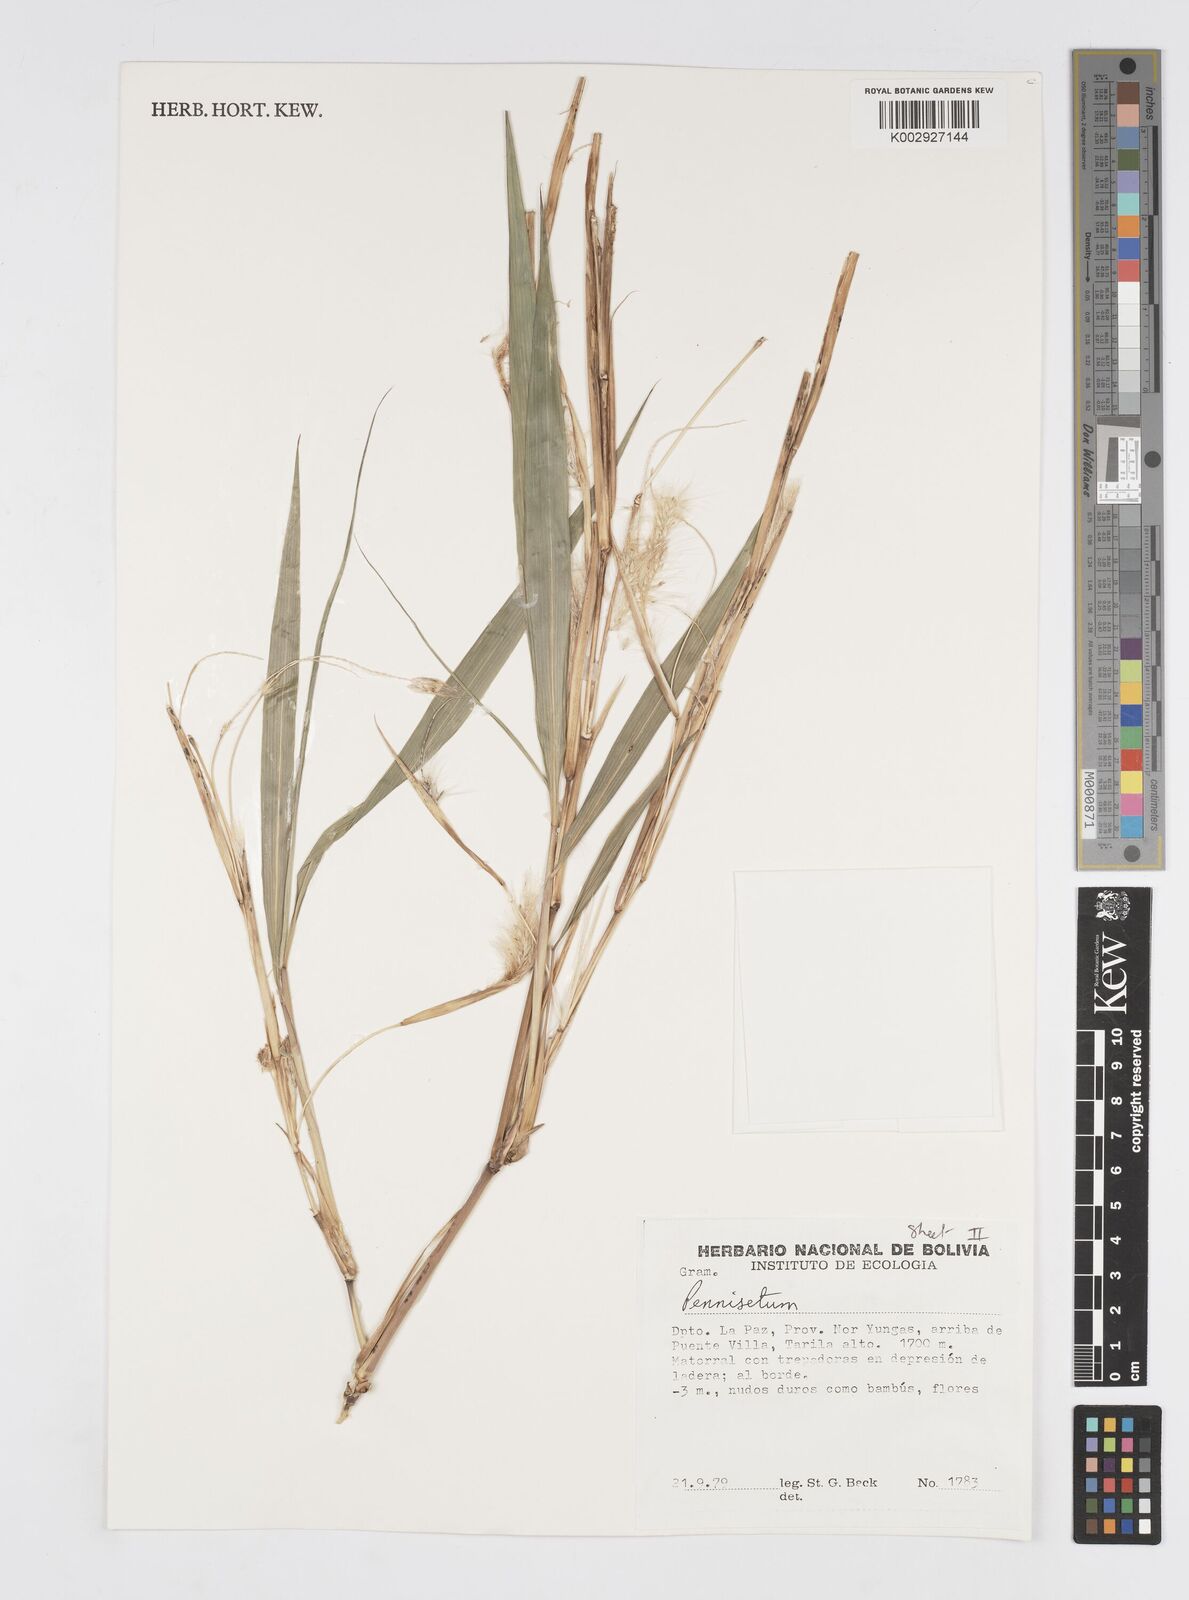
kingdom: Plantae
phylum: Tracheophyta
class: Liliopsida
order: Poales
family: Poaceae
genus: Cenchrus
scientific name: Cenchrus tristachyus
